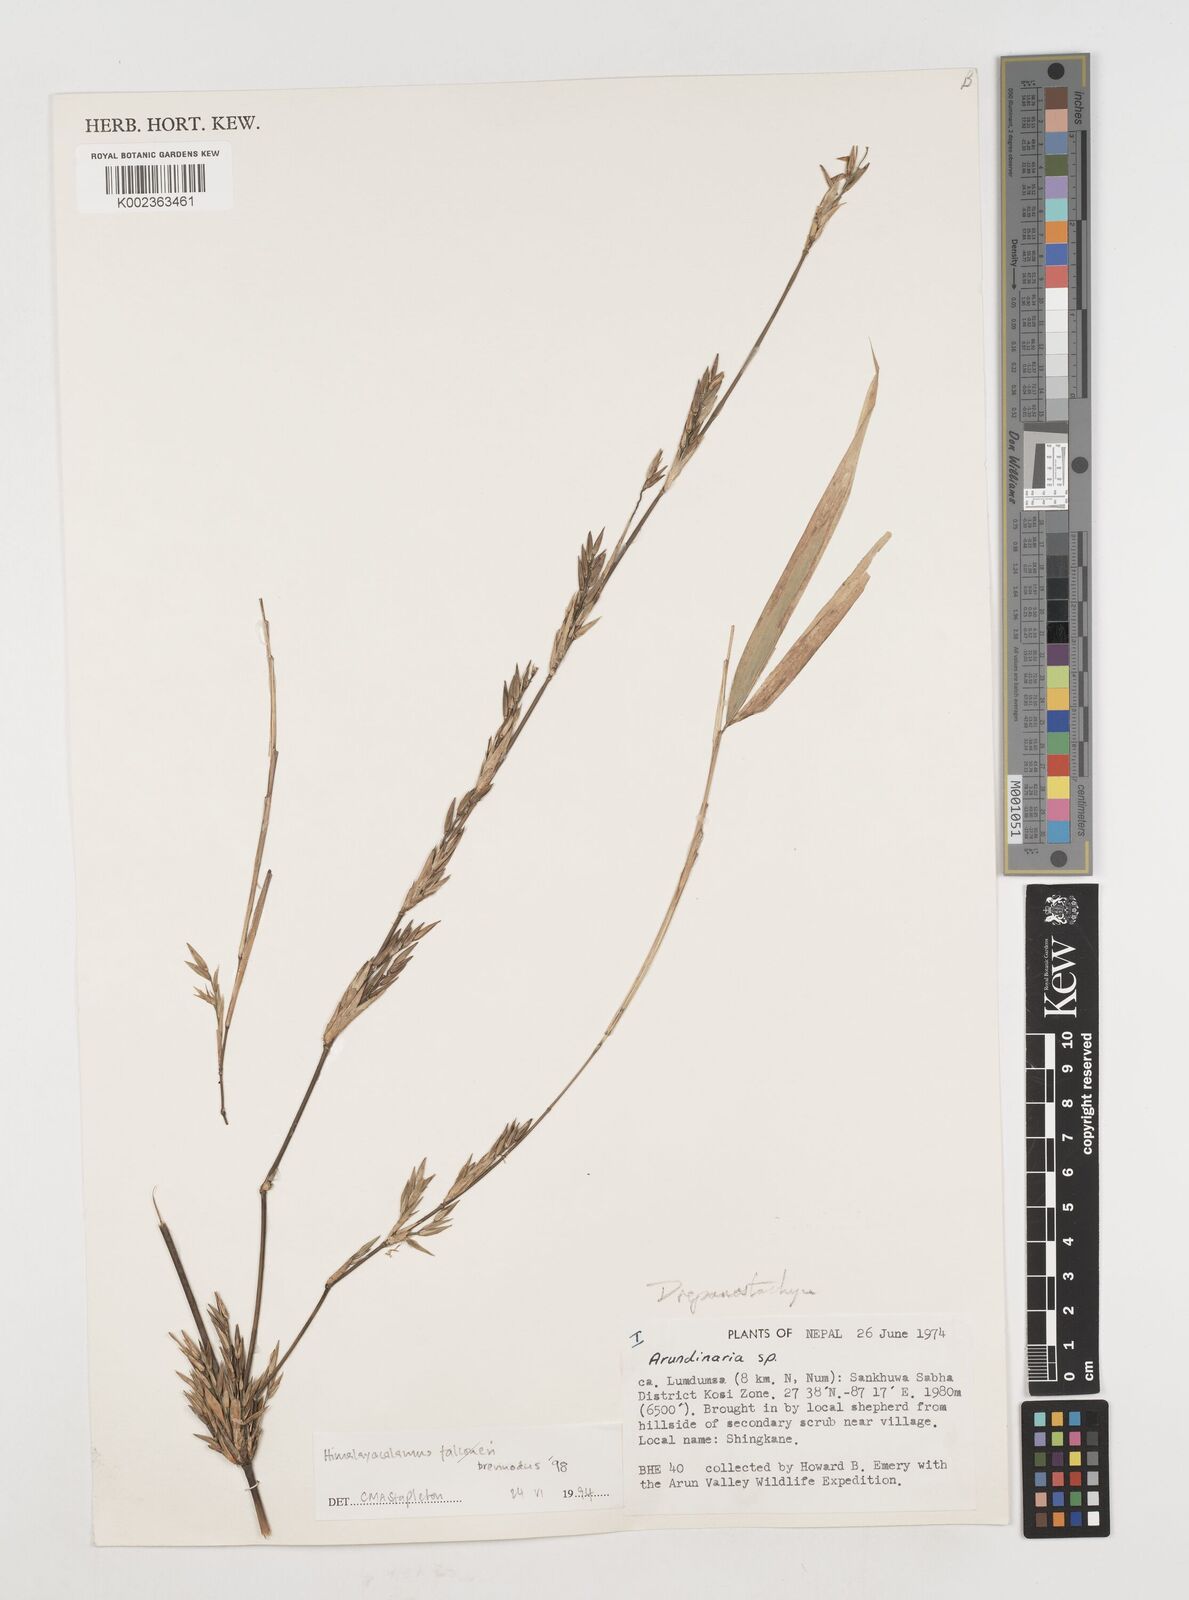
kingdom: Plantae
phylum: Tracheophyta
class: Liliopsida
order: Poales
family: Poaceae
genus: Himalayacalamus
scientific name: Himalayacalamus brevinodus
